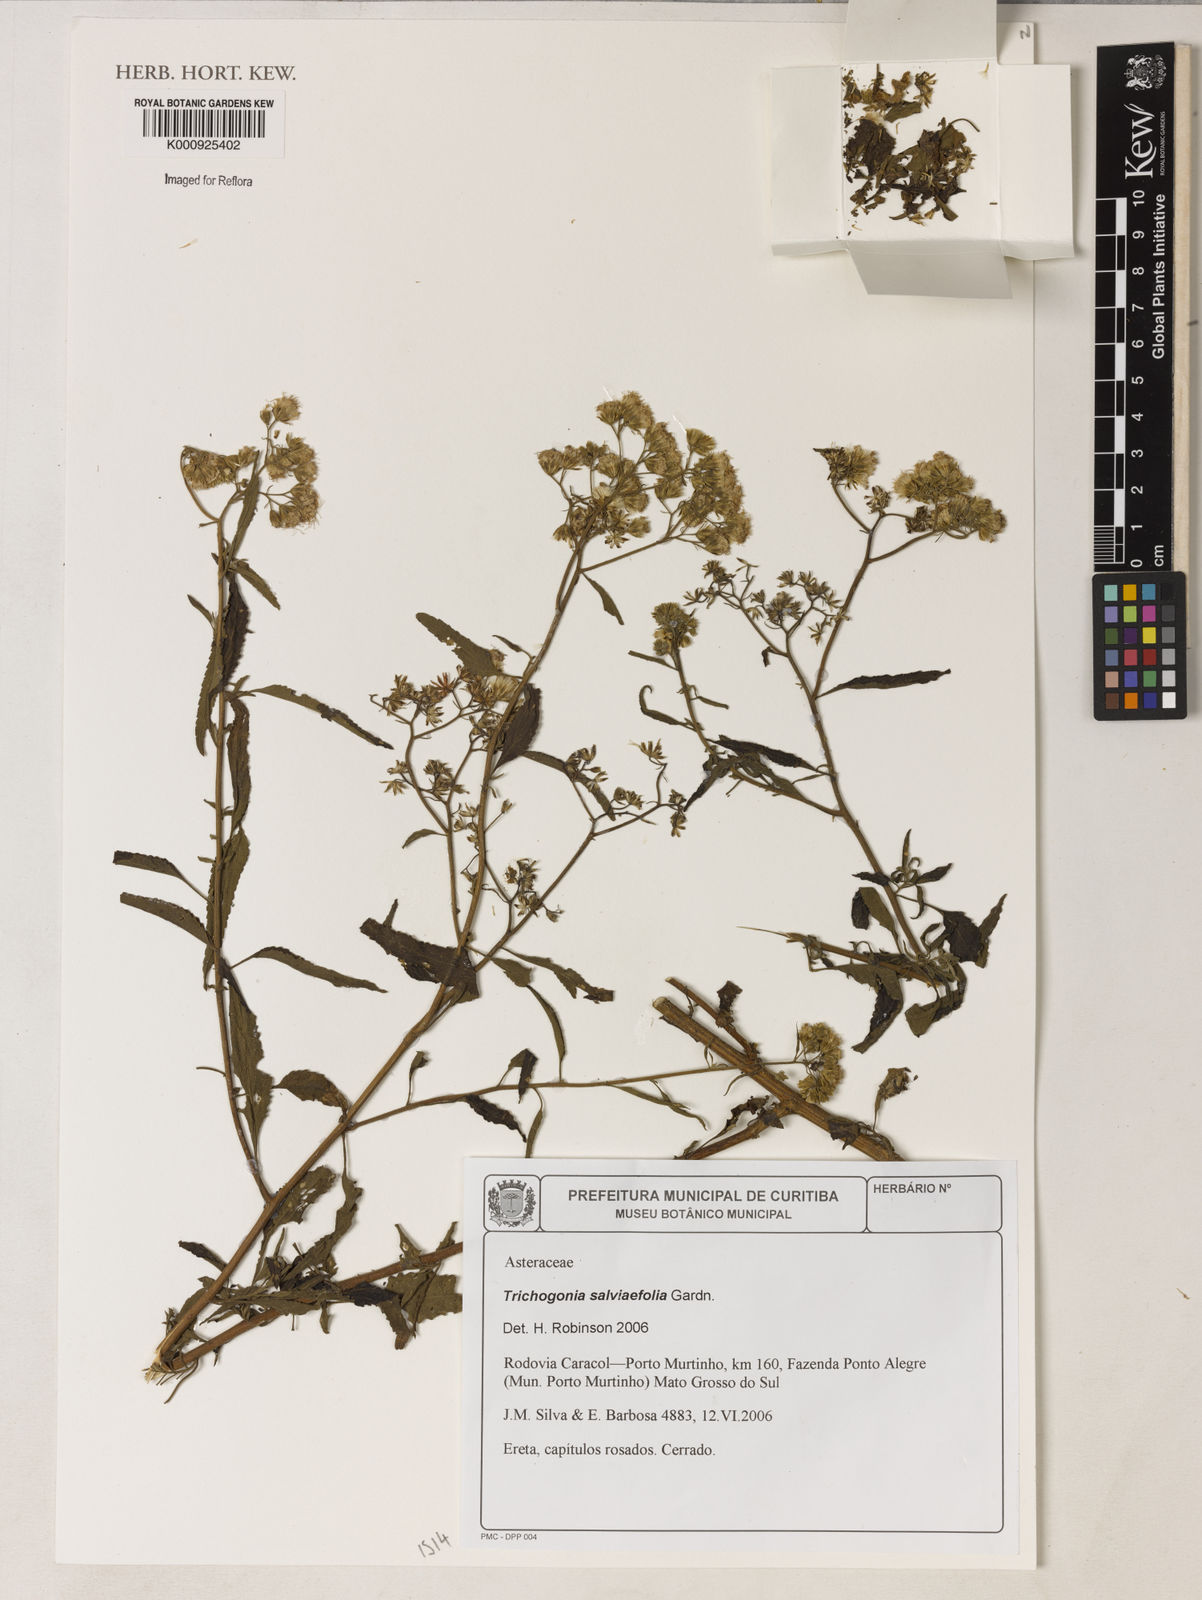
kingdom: Plantae
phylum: Tracheophyta
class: Magnoliopsida
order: Asterales
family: Asteraceae
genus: Trichogonia
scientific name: Trichogonia
